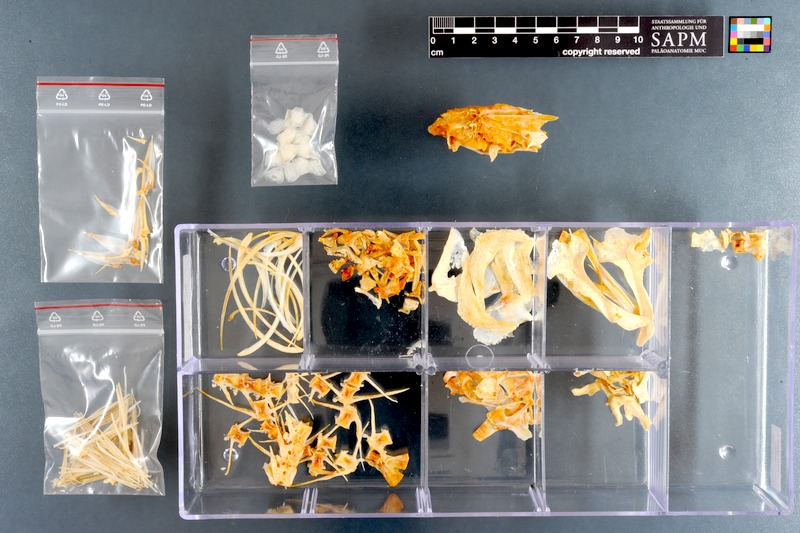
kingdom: Animalia
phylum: Chordata
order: Perciformes
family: Sparidae
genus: Sarpa
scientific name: Sarpa salpa
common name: Salema
